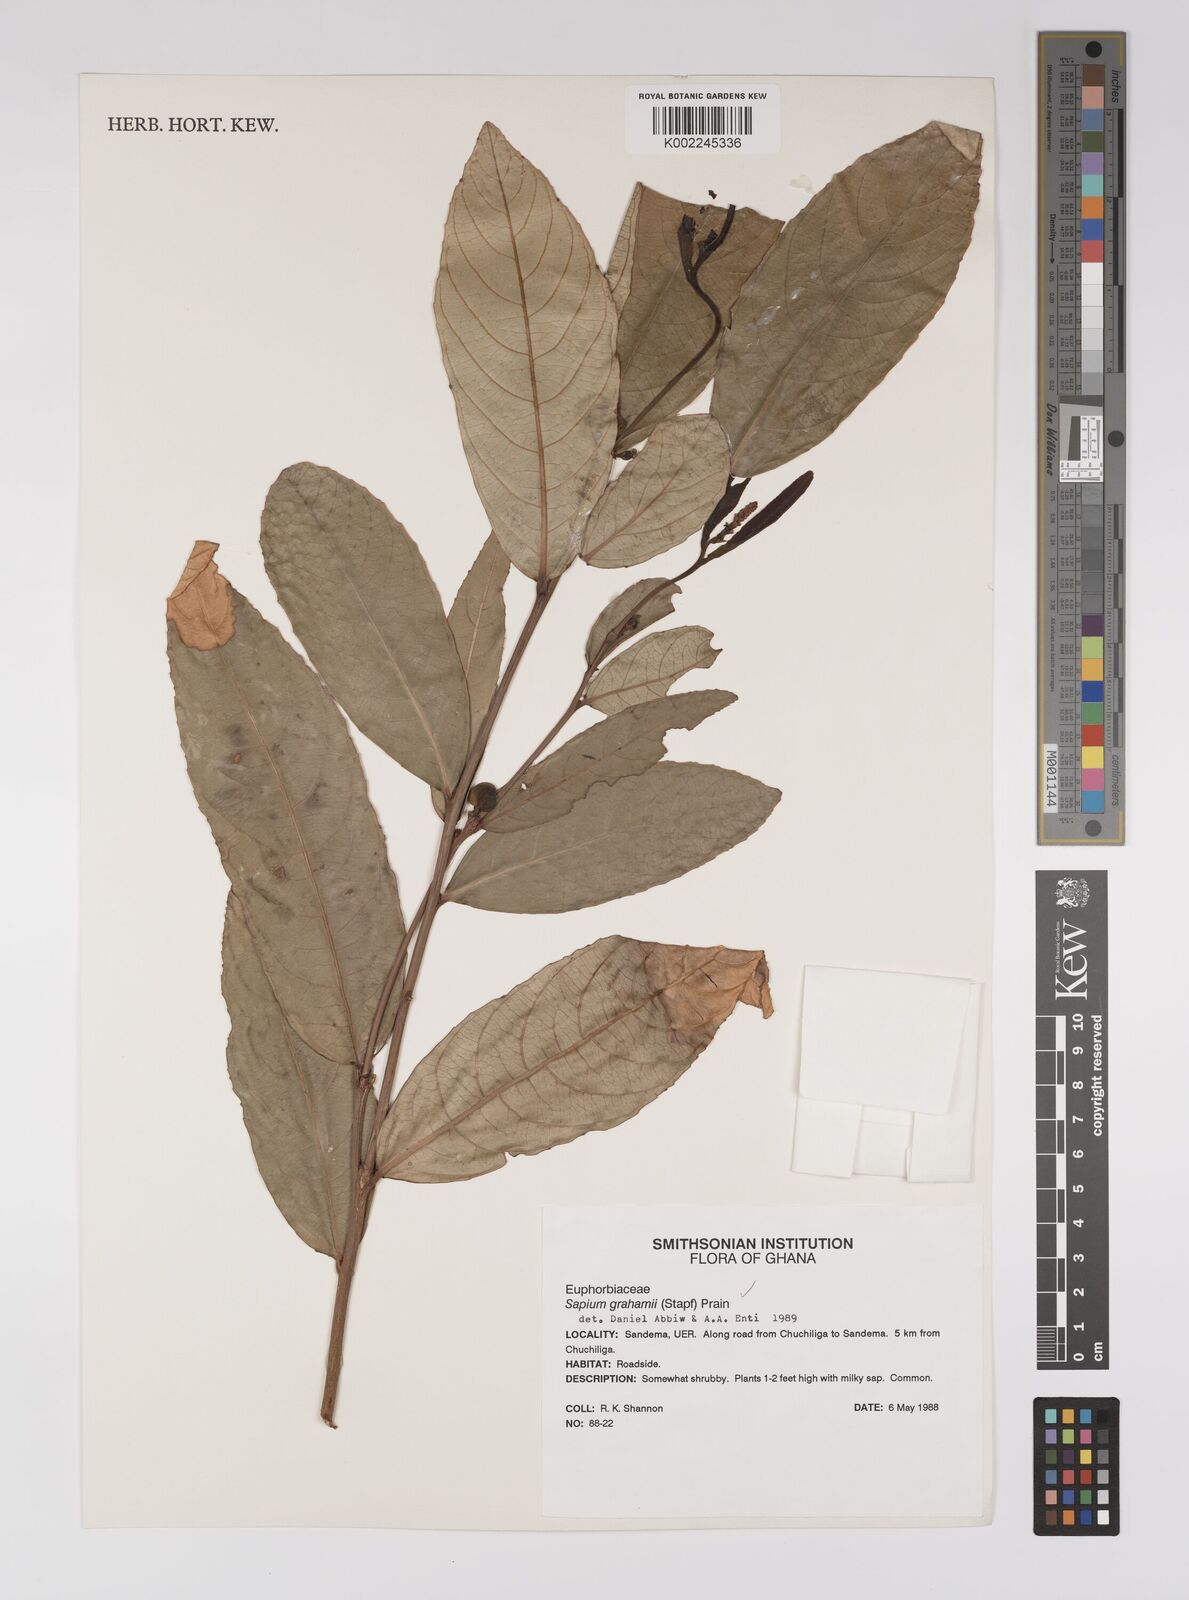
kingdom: Plantae
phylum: Tracheophyta
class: Magnoliopsida
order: Malpighiales
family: Euphorbiaceae
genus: Excoecaria
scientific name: Excoecaria grahamii
